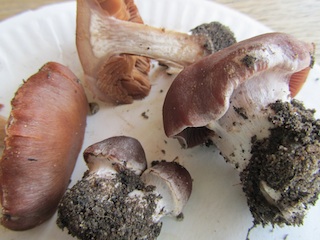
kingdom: Fungi
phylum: Basidiomycota
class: Agaricomycetes
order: Agaricales
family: Cortinariaceae
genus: Cortinarius
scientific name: Cortinarius saturninus
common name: brunviolet slørhat
